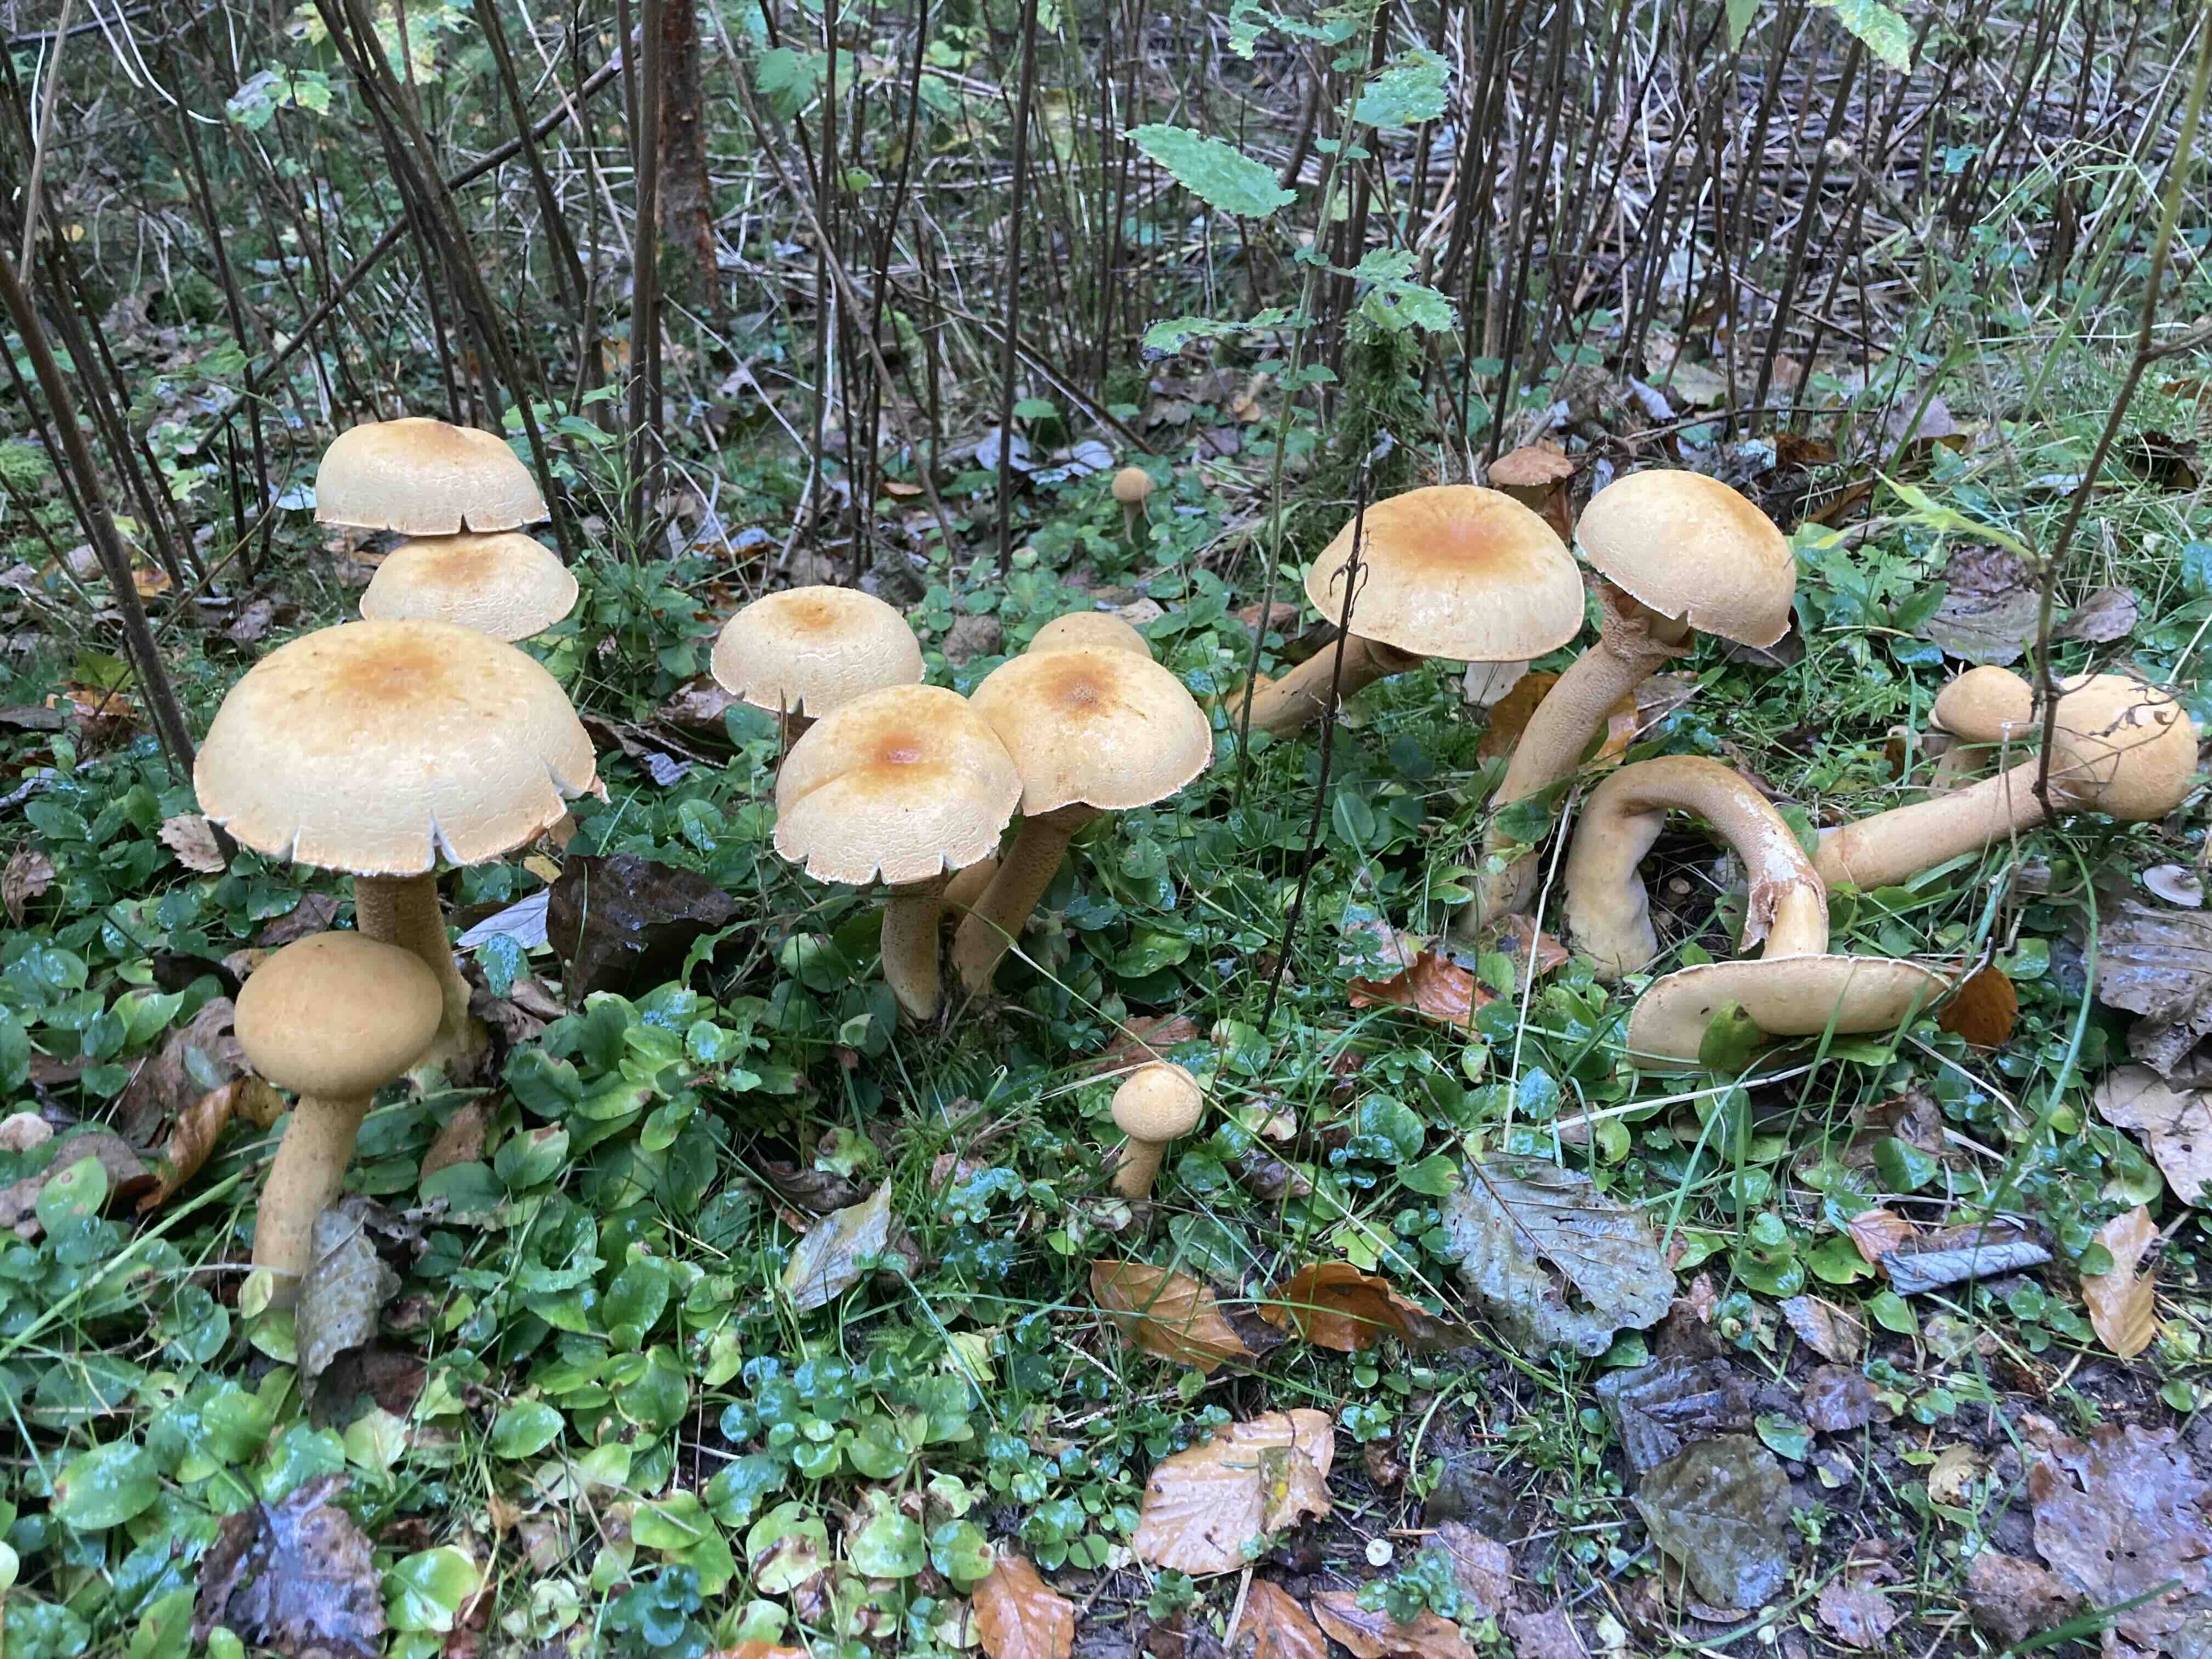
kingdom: Fungi
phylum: Basidiomycota
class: Agaricomycetes
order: Agaricales
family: Tricholomataceae
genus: Phaeolepiota
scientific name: Phaeolepiota aurea
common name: gyldenhat
